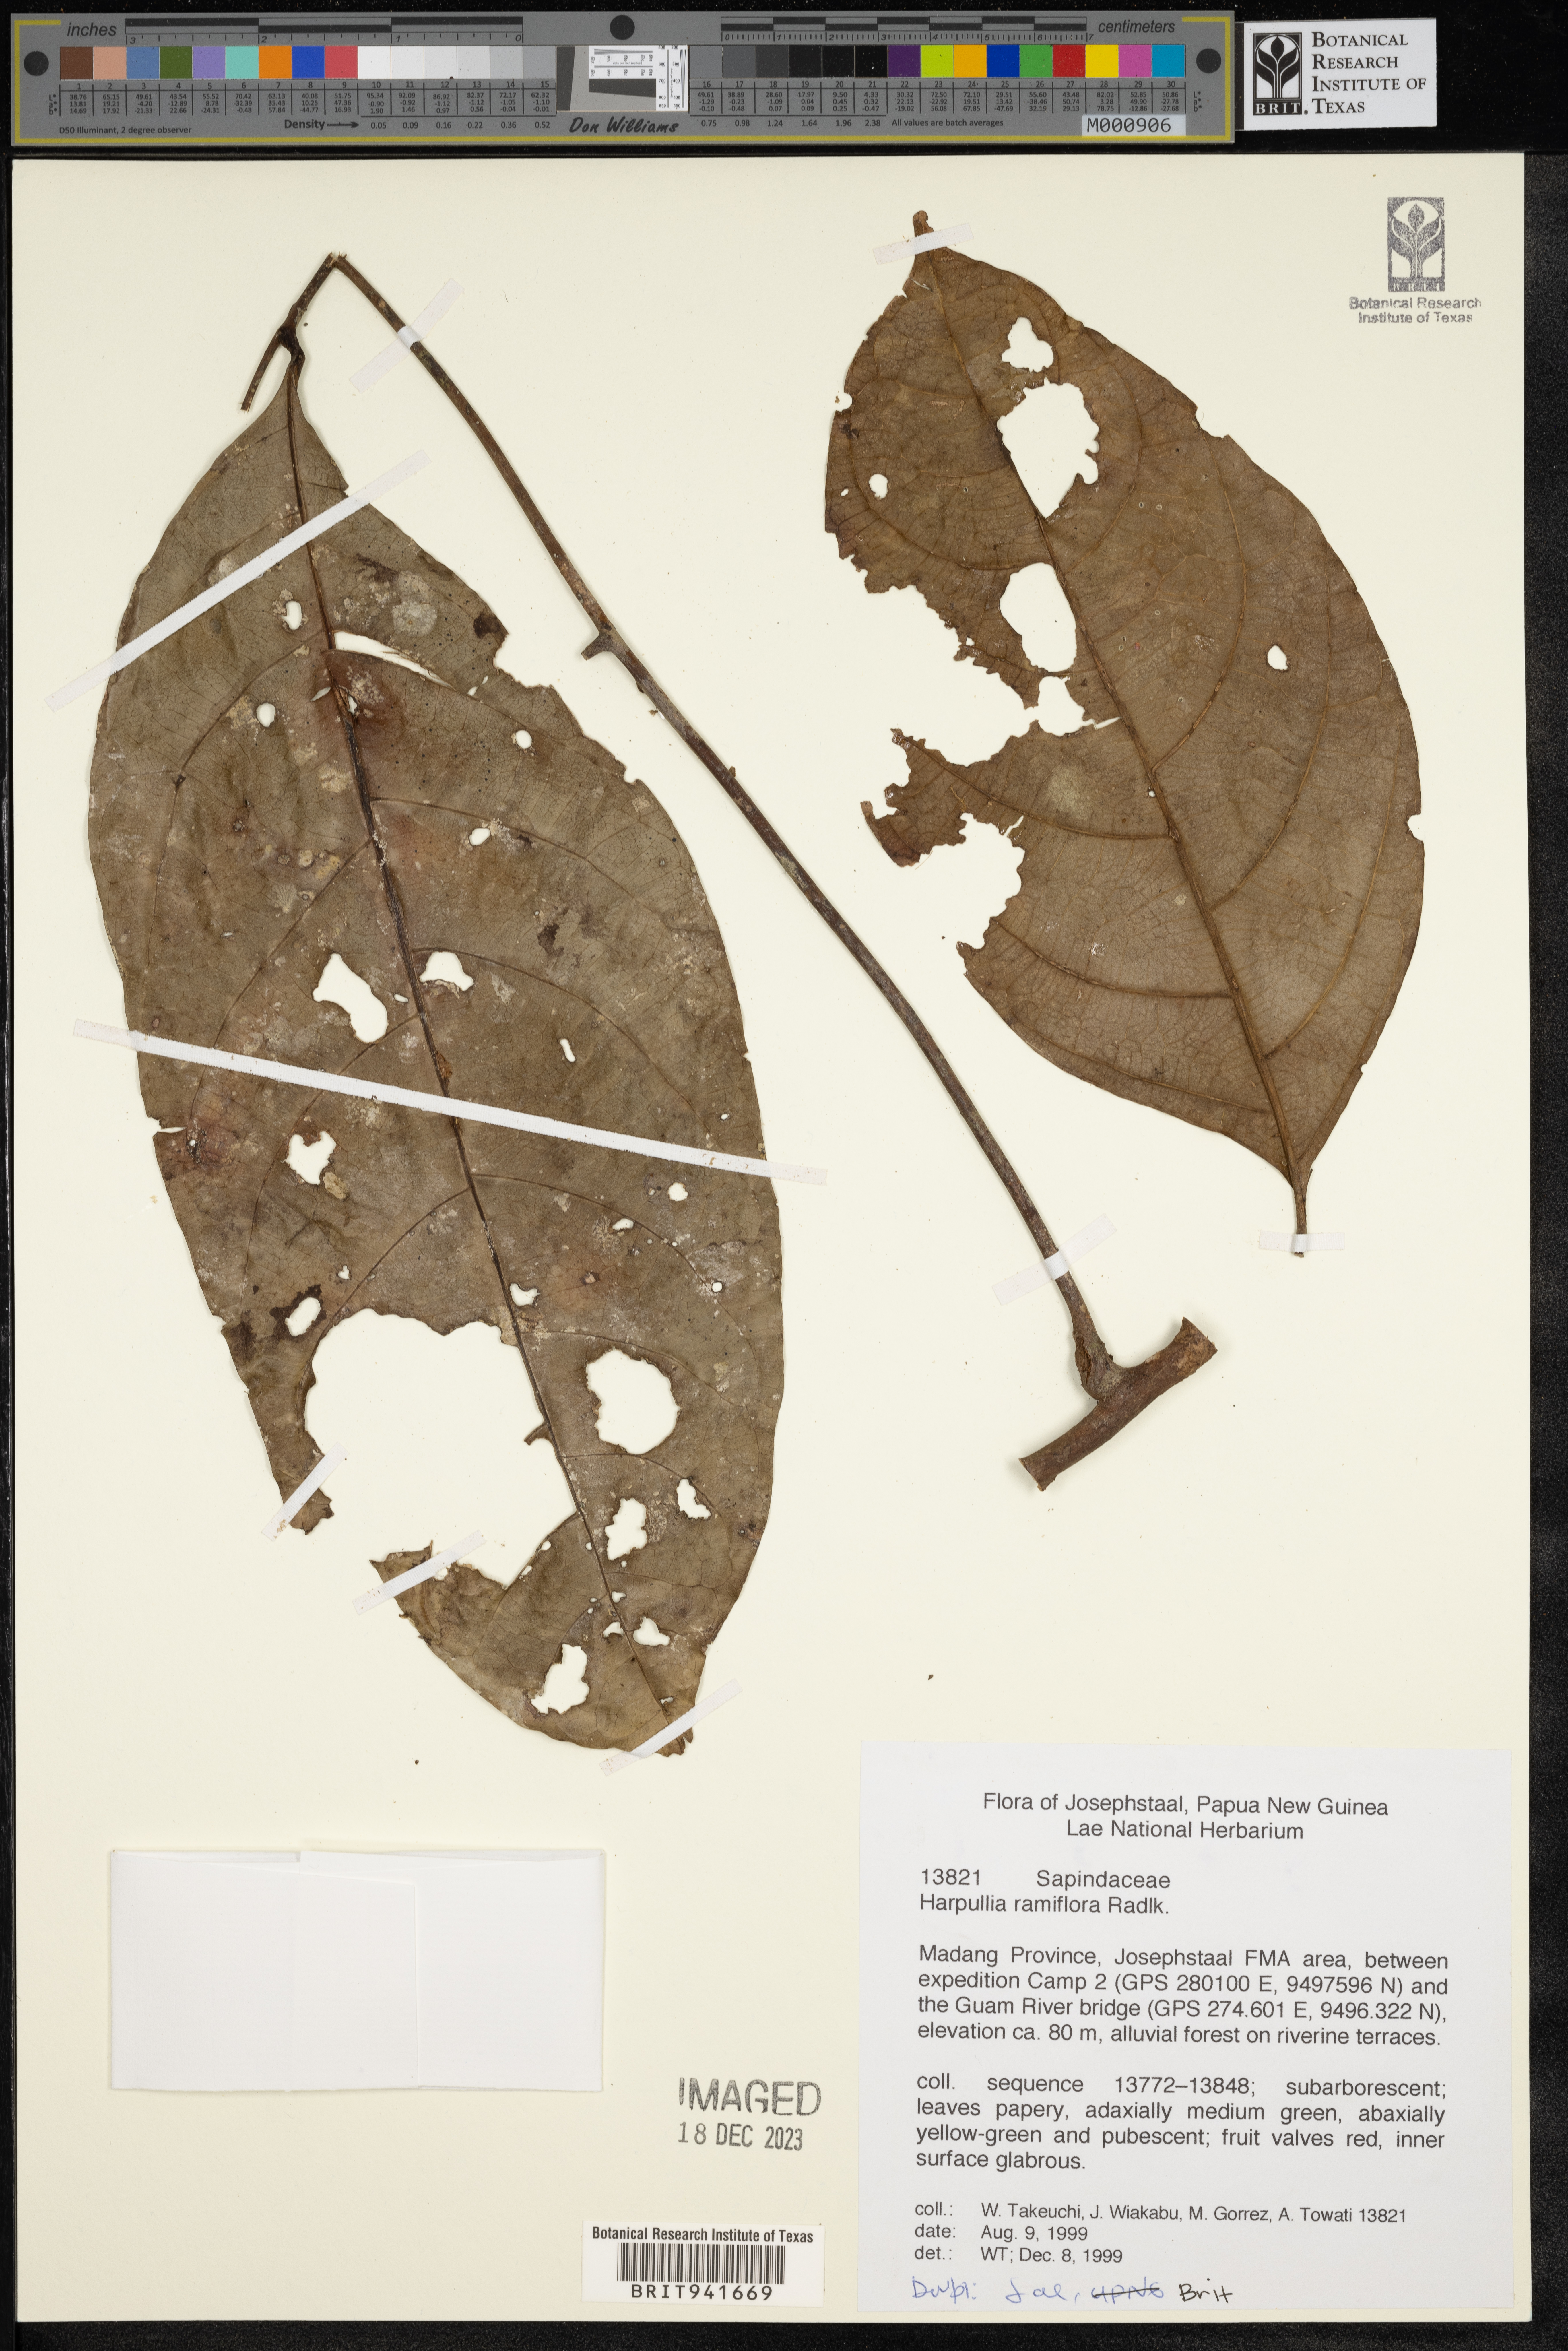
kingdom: Plantae
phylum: Tracheophyta
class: Magnoliopsida
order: Sapindales
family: Sapindaceae
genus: Harpullia
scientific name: Harpullia
